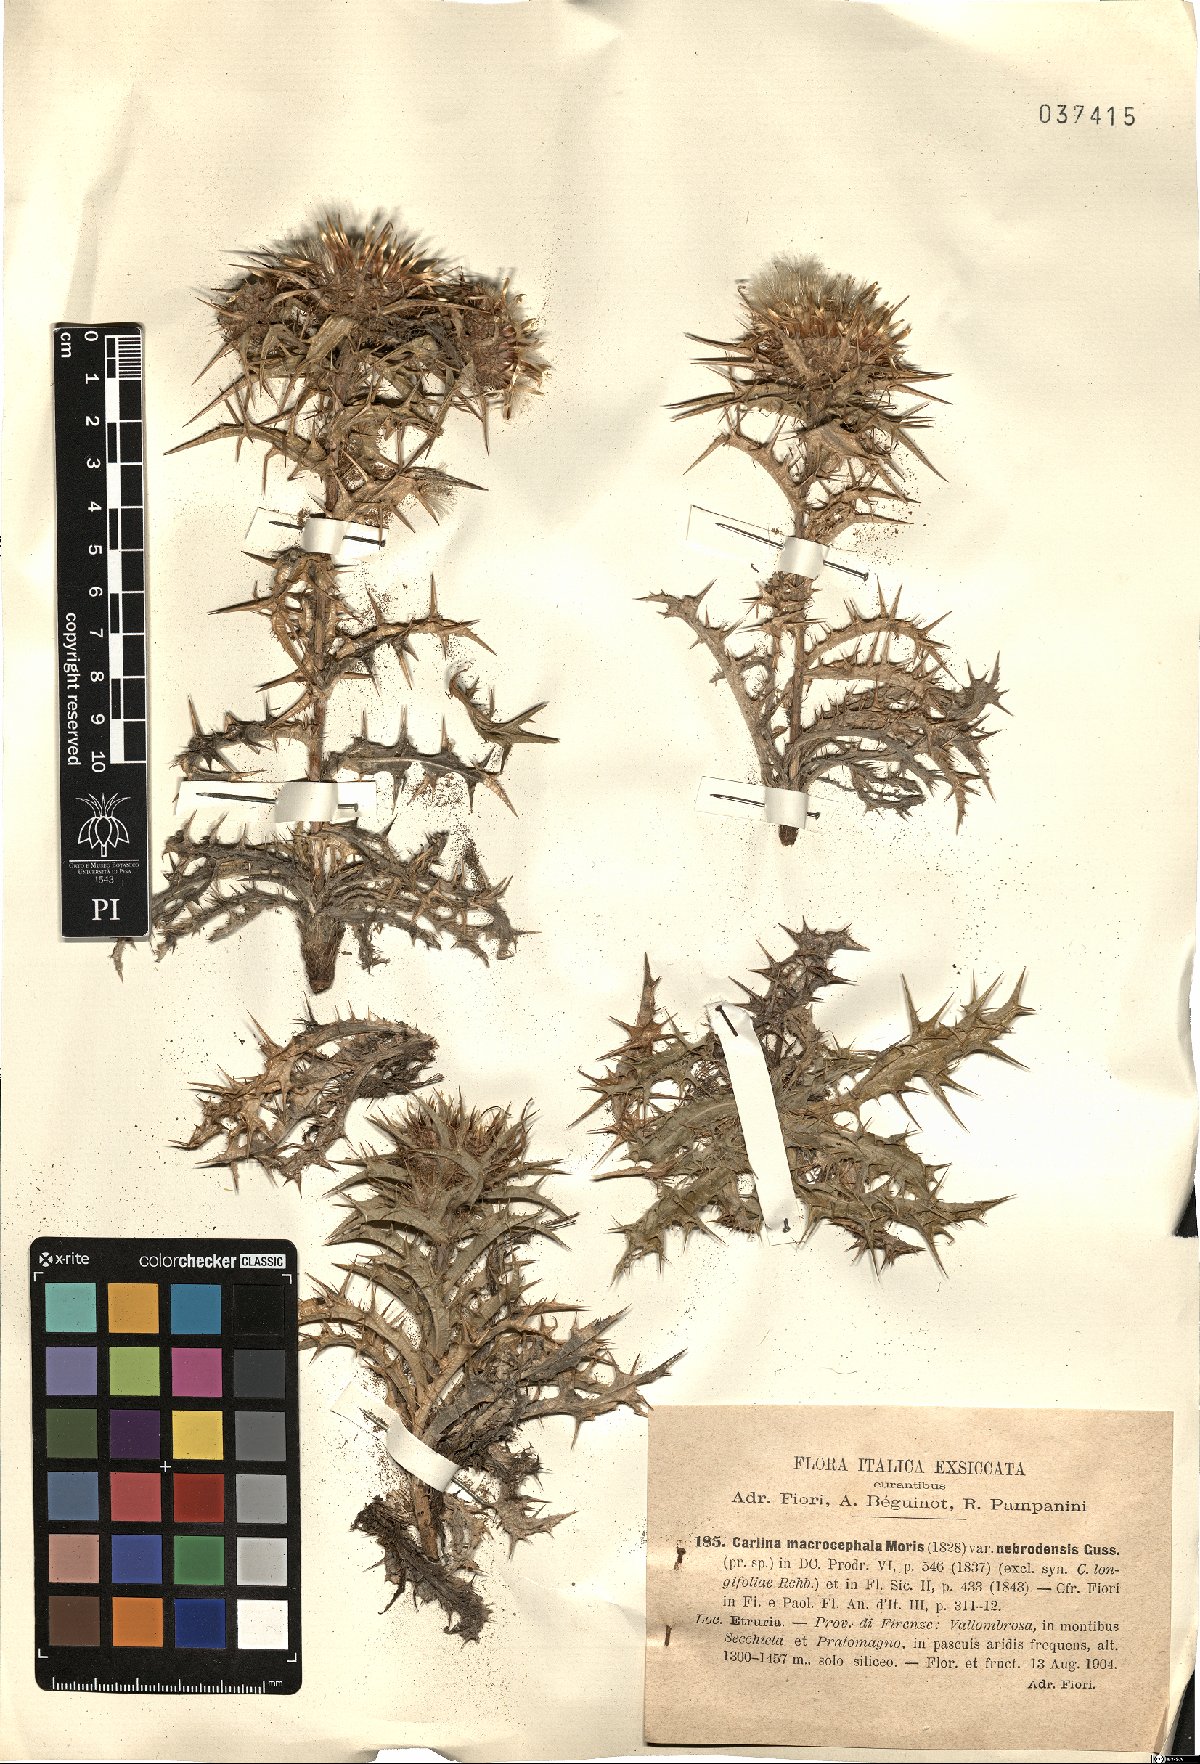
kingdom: Plantae
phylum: Tracheophyta
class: Magnoliopsida
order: Asterales
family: Asteraceae
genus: Carlina
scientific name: Carlina vulgaris
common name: Carline thistle
